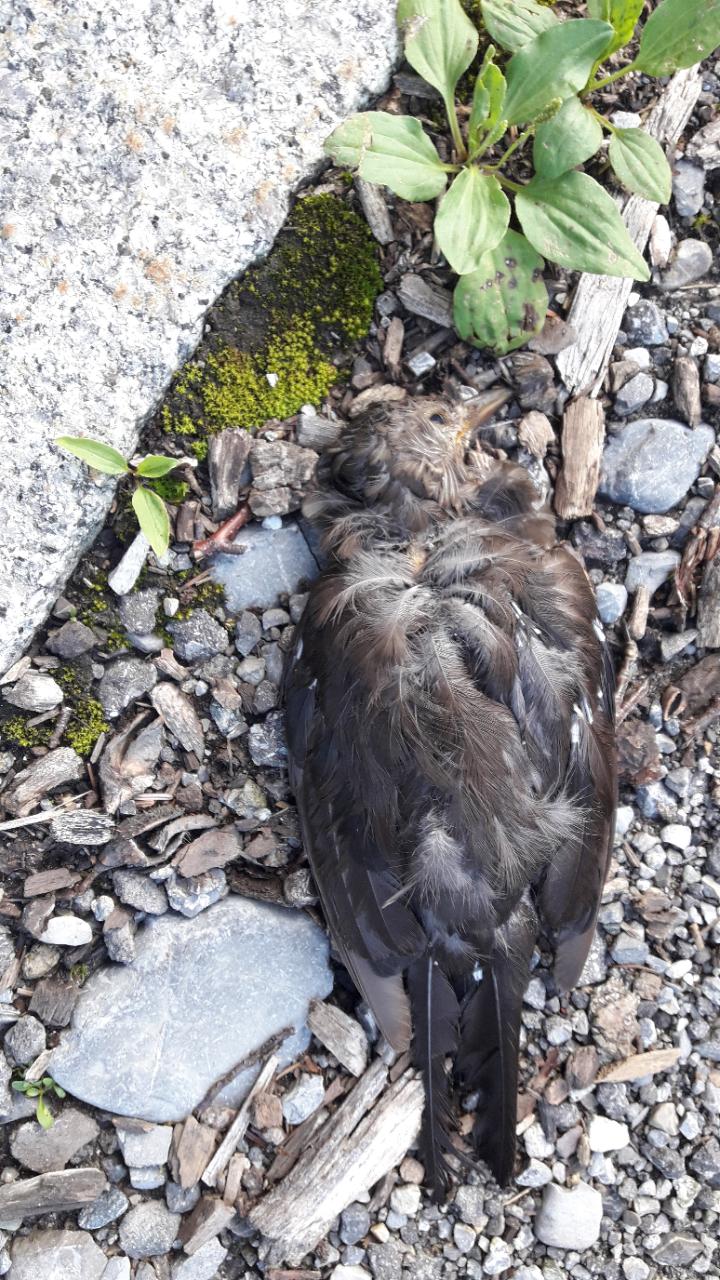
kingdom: Animalia
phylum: Chordata
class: Aves
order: Passeriformes
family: Turdidae
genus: Turdus
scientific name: Turdus merula
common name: Common blackbird
